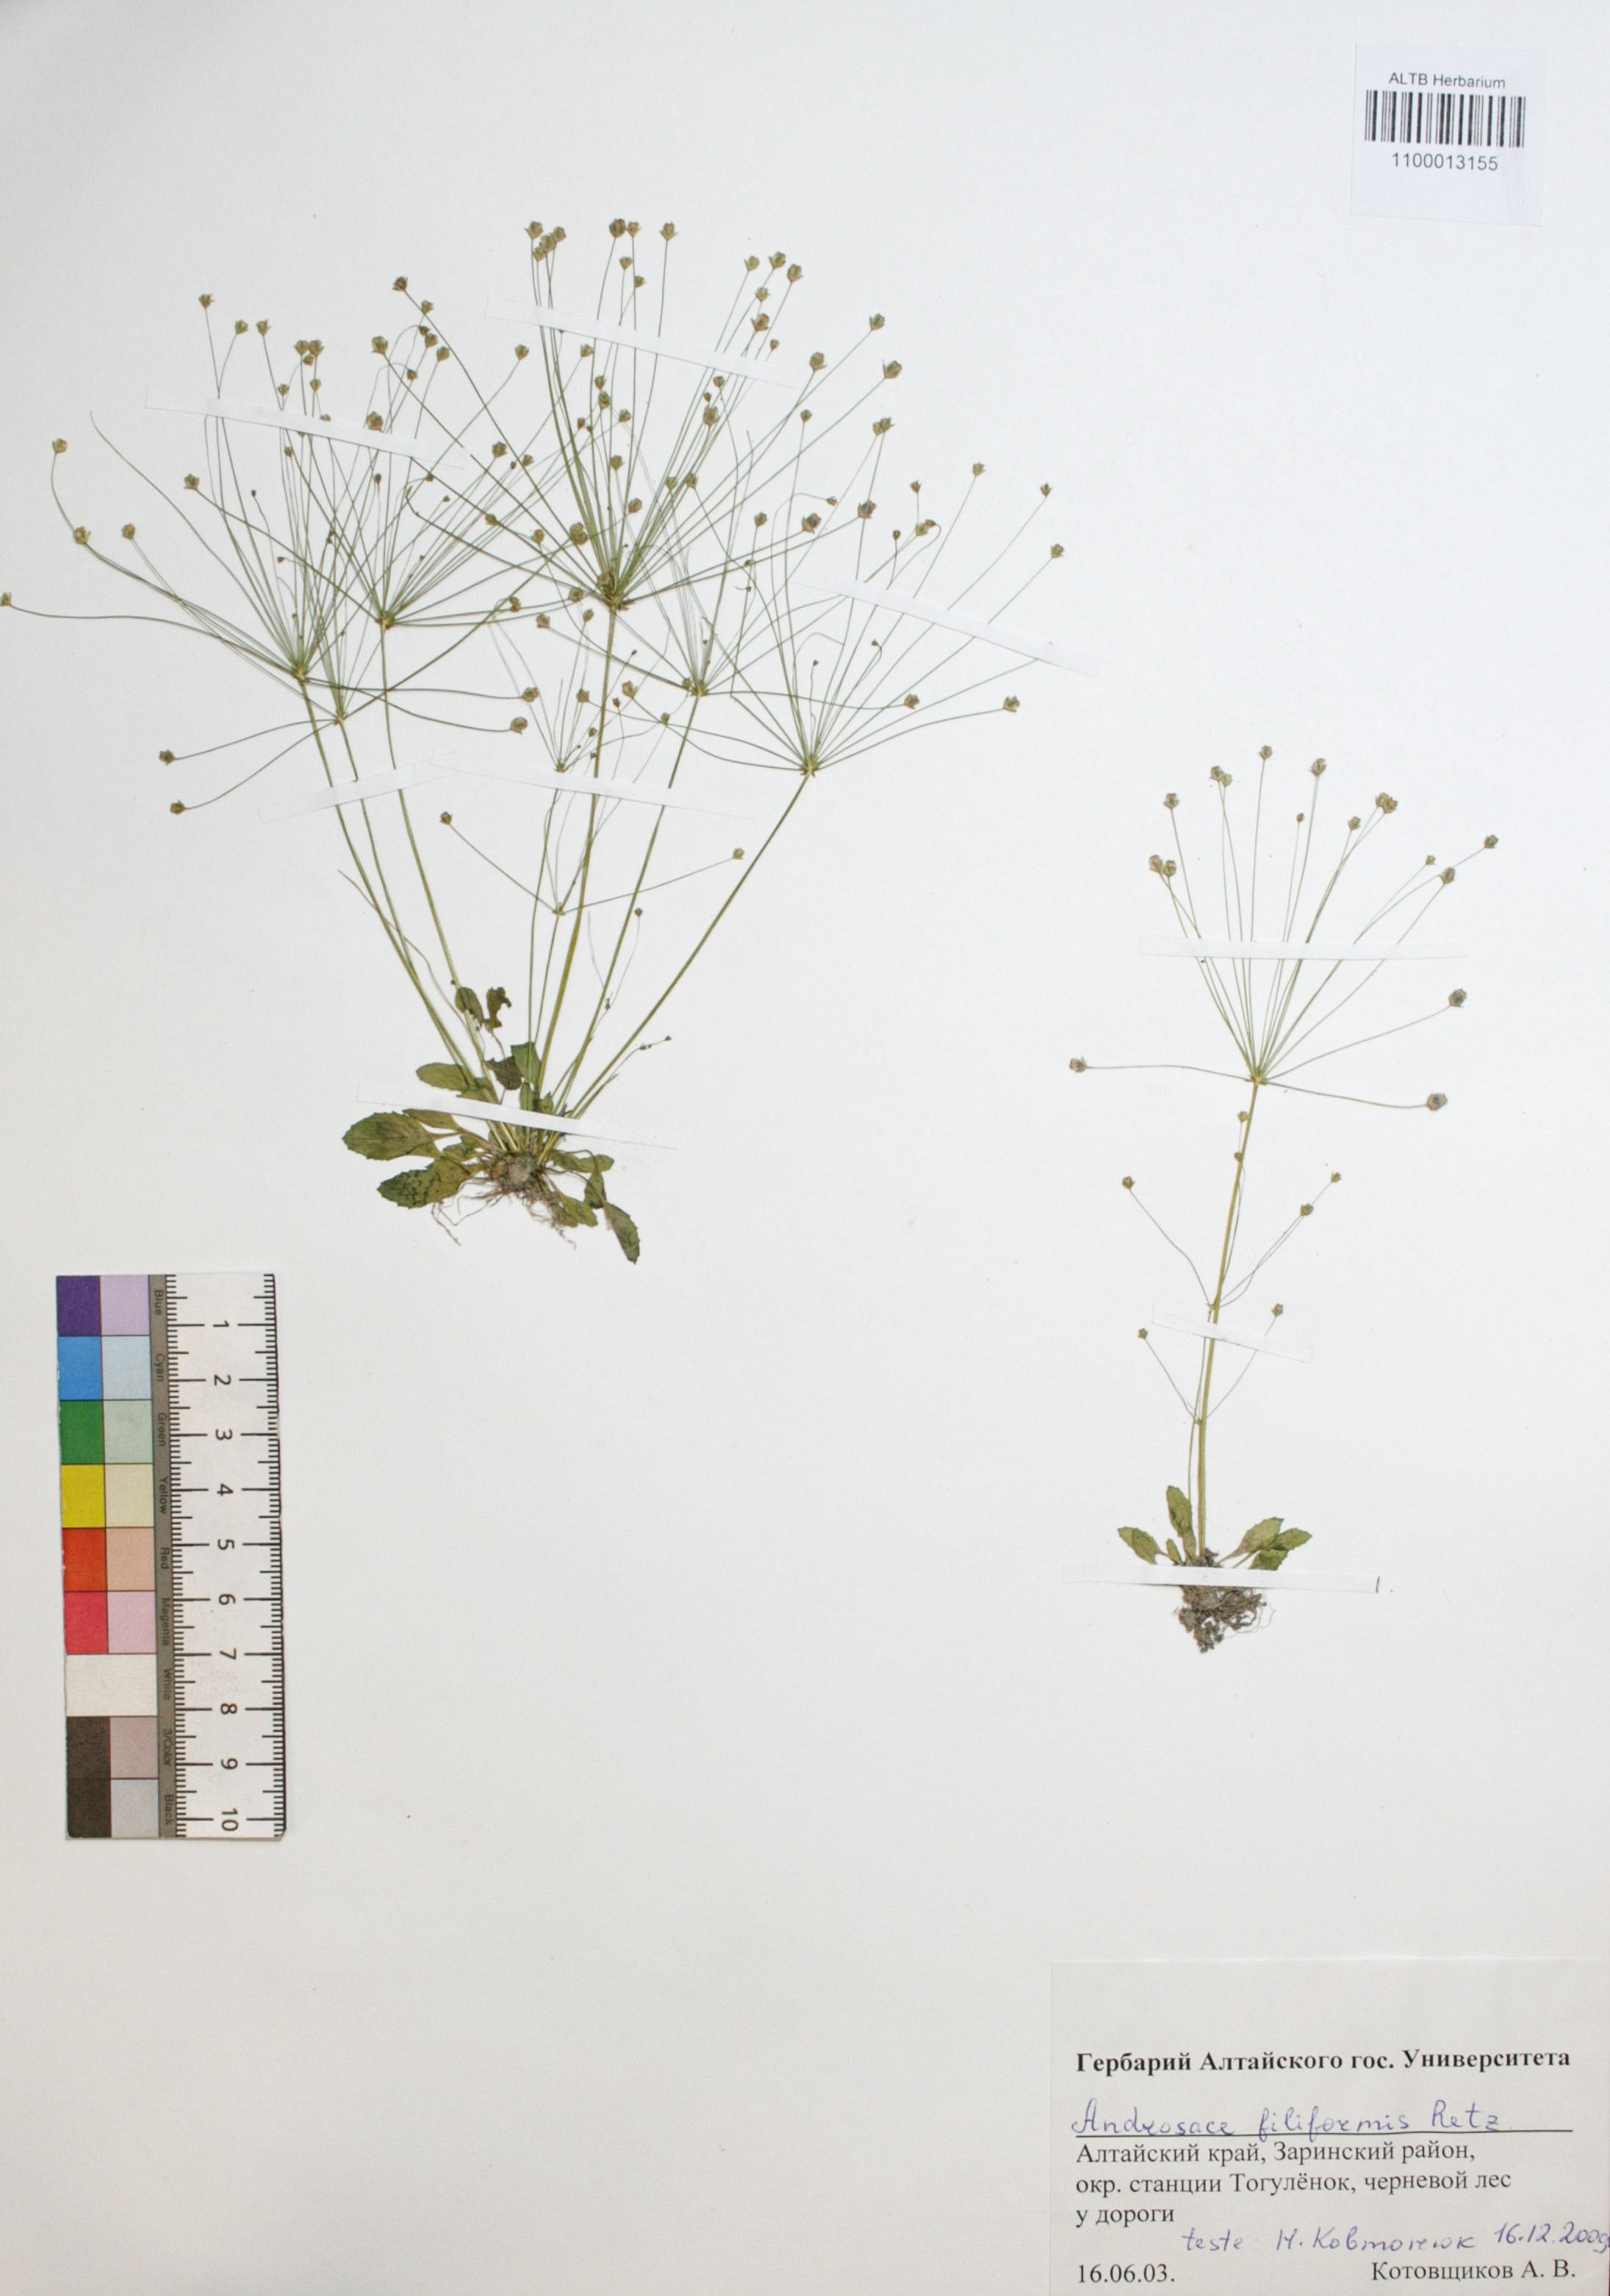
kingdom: Plantae
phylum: Tracheophyta
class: Magnoliopsida
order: Ericales
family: Primulaceae
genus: Androsace
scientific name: Androsace filiformis
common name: Filiform rock jasmine
